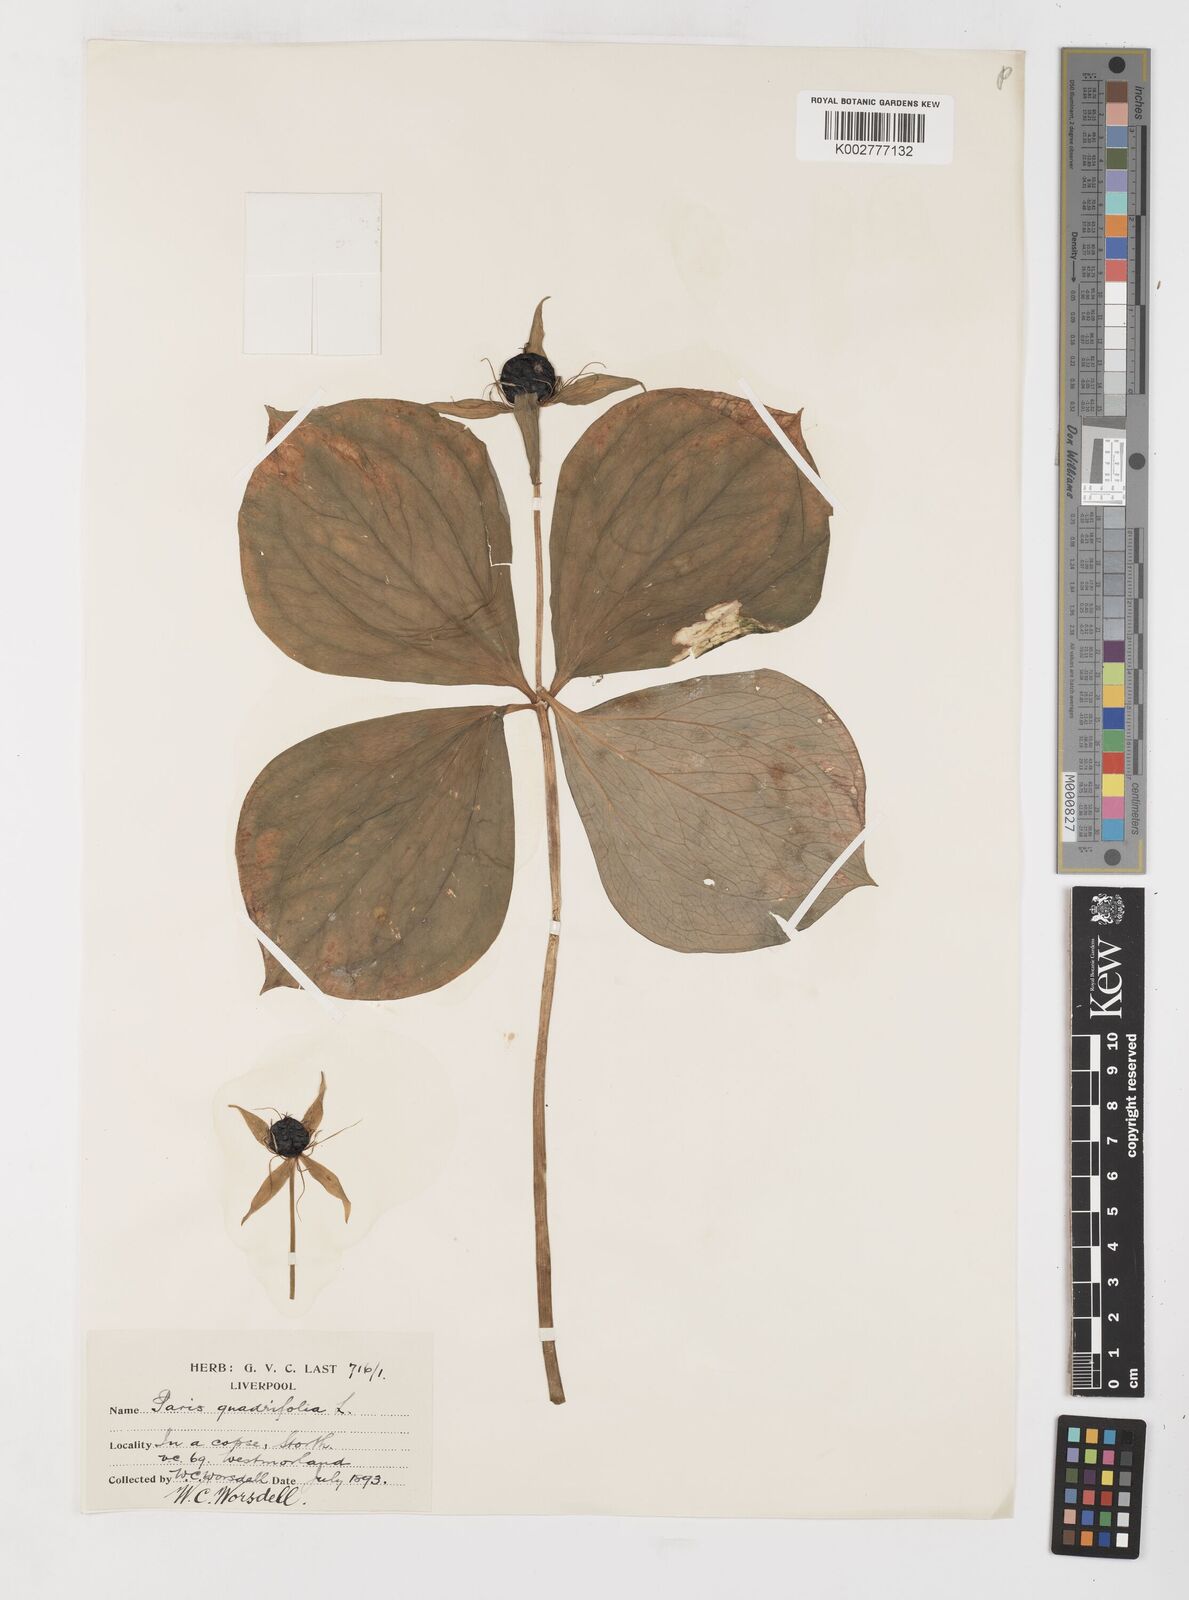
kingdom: Plantae
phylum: Tracheophyta
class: Liliopsida
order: Liliales
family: Melanthiaceae
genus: Paris
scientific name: Paris quadrifolia
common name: Herb-paris
